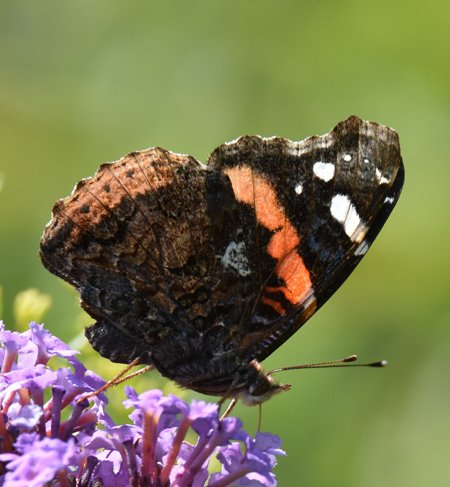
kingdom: Animalia
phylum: Arthropoda
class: Insecta
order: Lepidoptera
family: Nymphalidae
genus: Vanessa
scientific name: Vanessa atalanta
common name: Red Admiral
